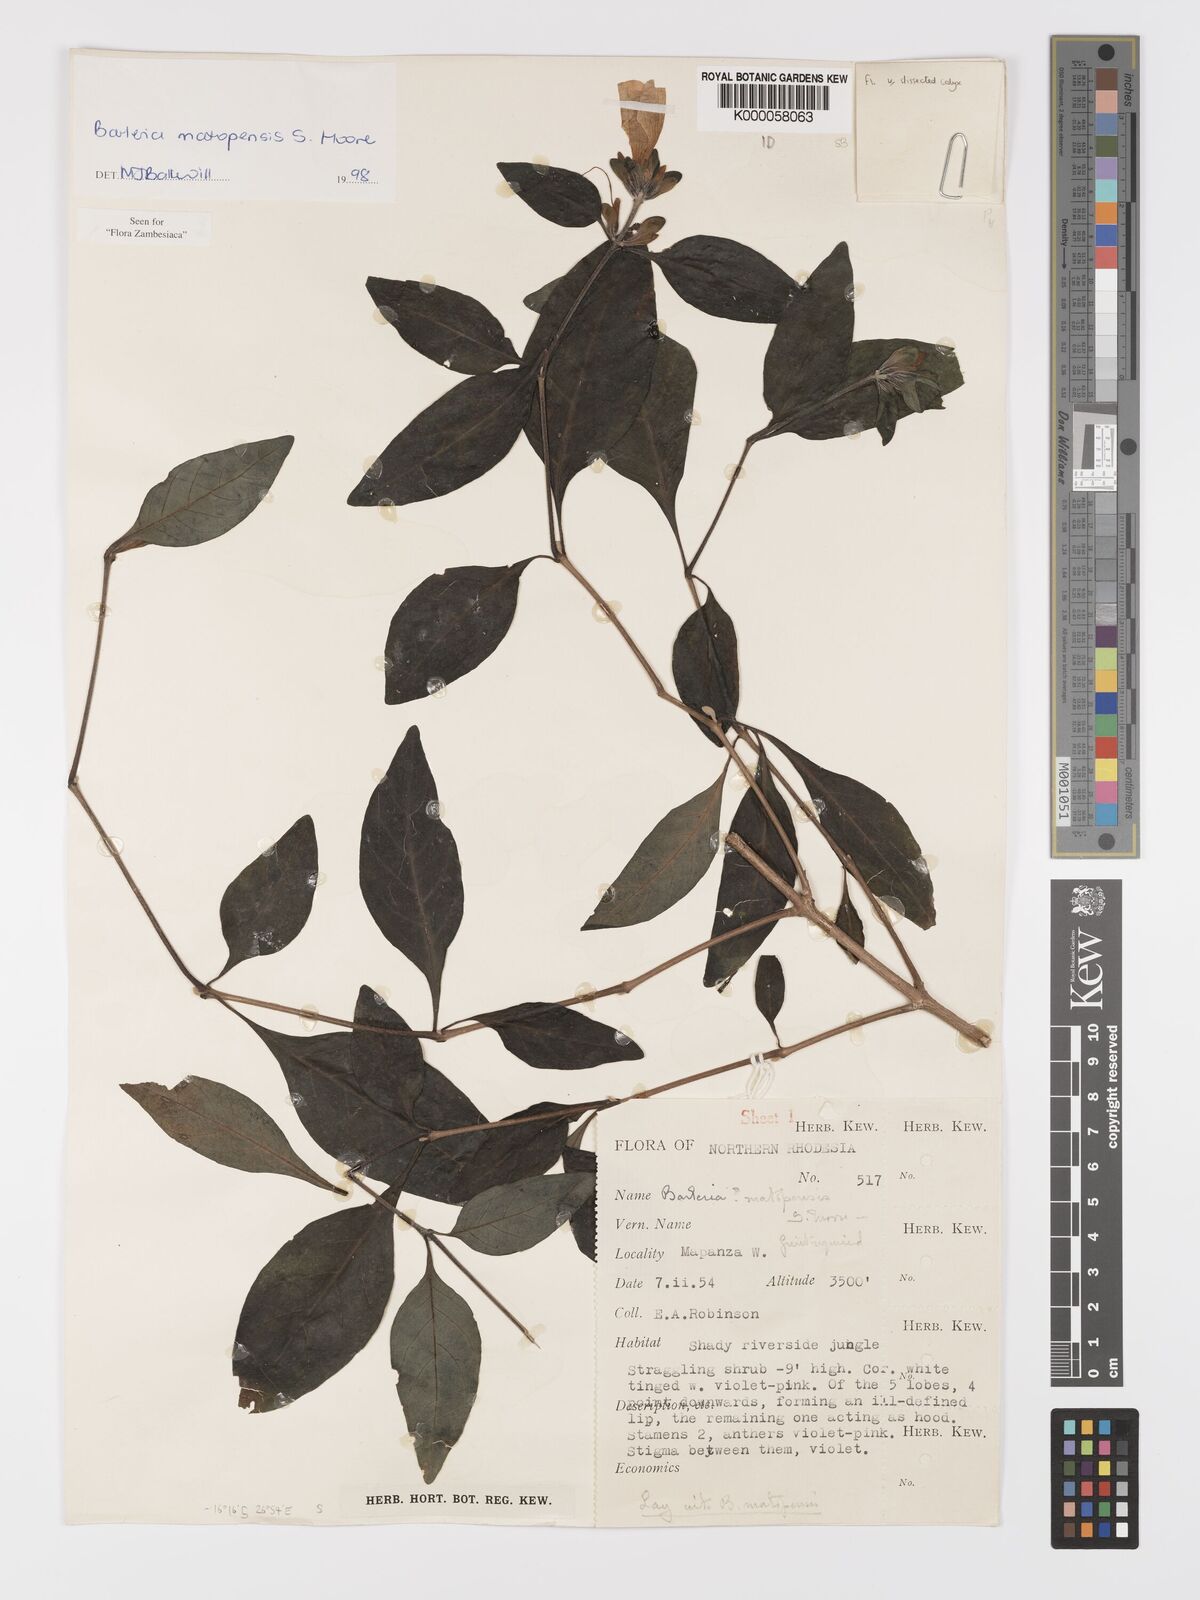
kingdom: Plantae
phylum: Tracheophyta
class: Magnoliopsida
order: Lamiales
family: Acanthaceae
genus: Barleria
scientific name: Barleria matopensis
